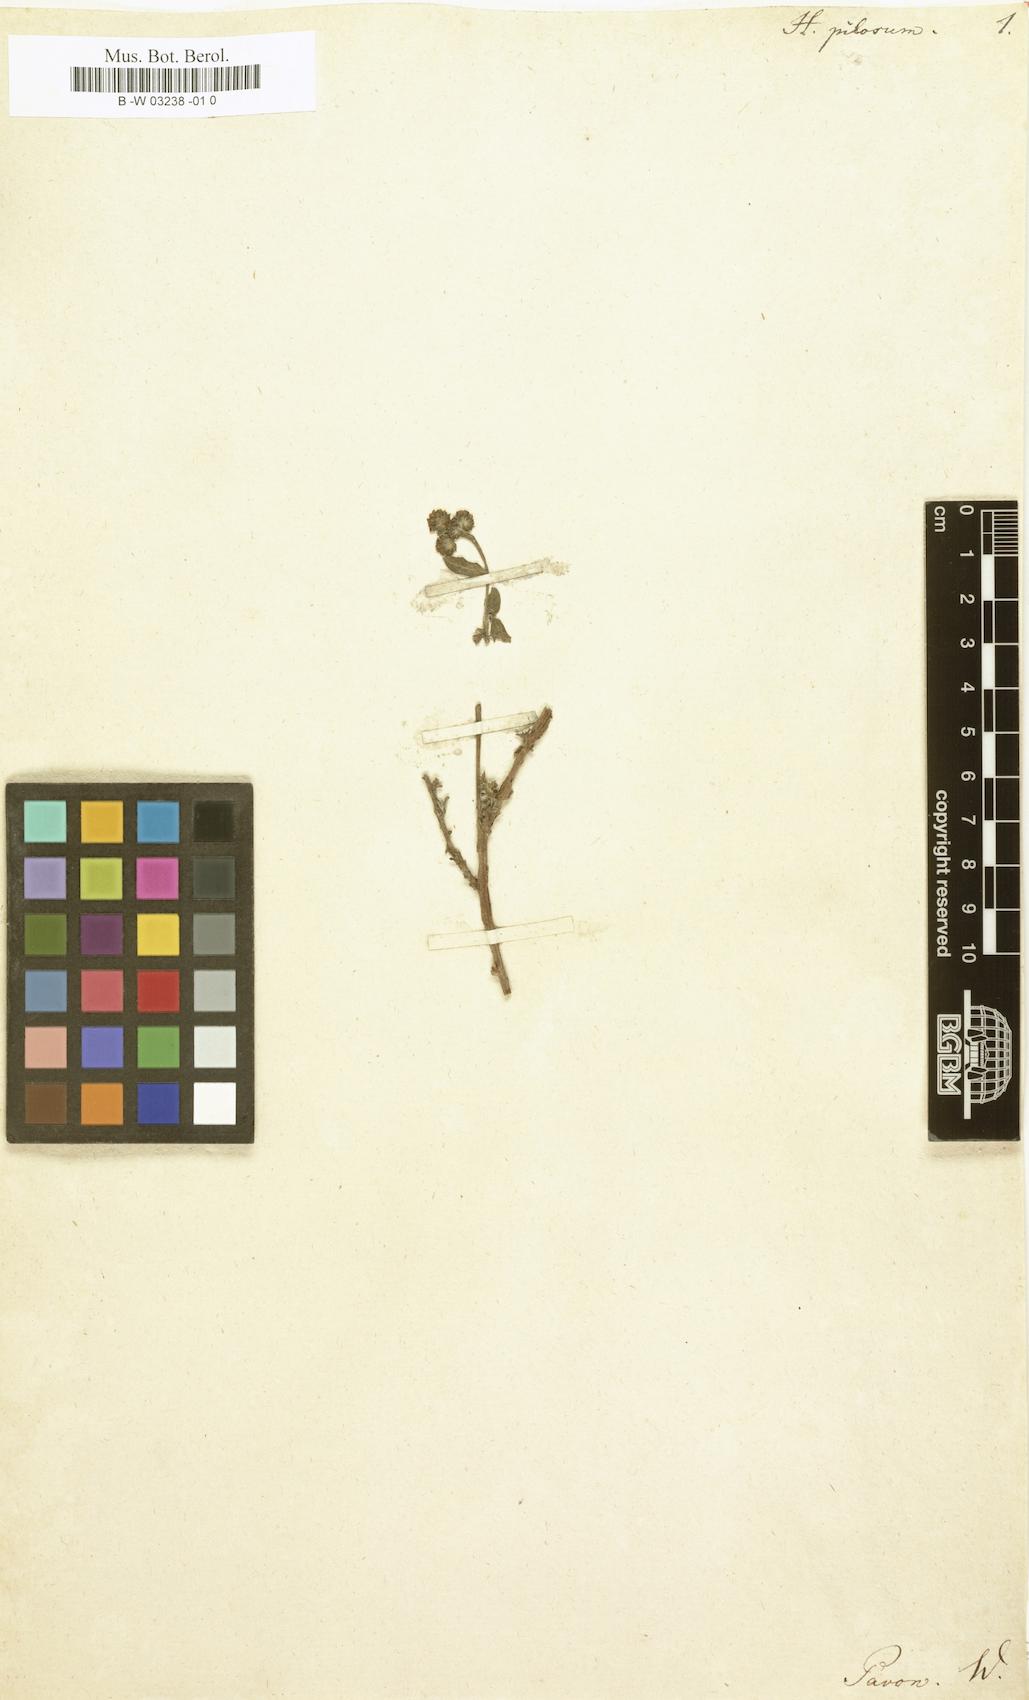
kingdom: Plantae
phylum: Tracheophyta
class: Magnoliopsida
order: Boraginales
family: Heliotropiaceae
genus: Euploca
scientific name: Euploca pilosa
